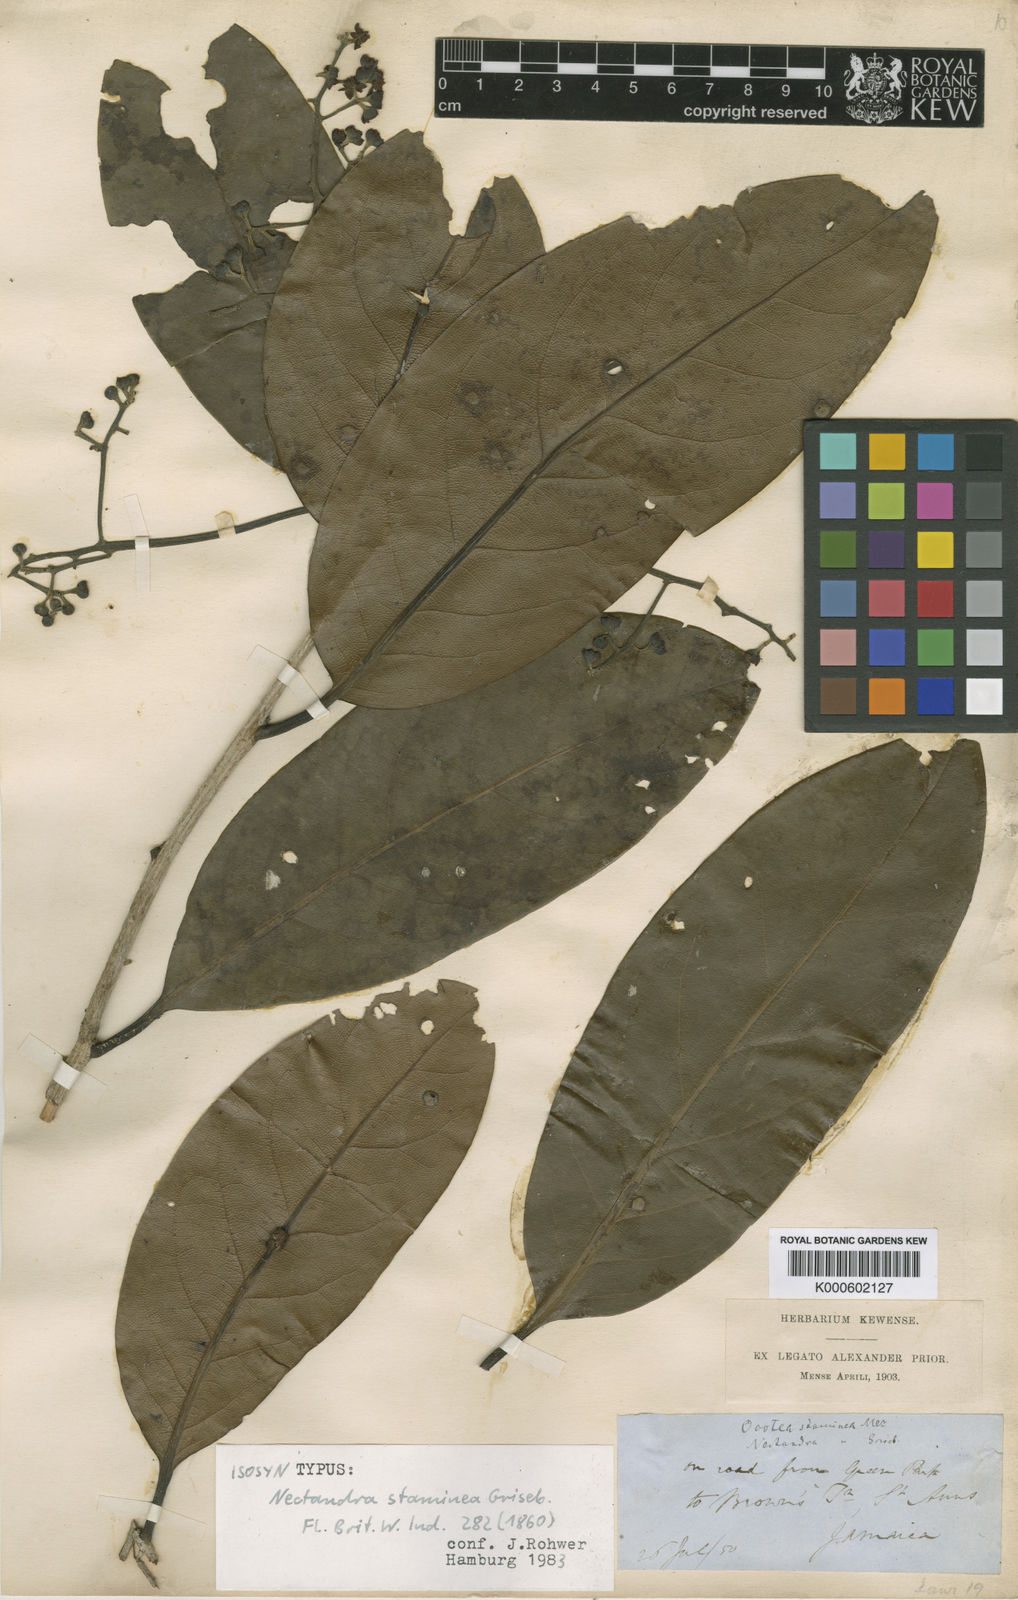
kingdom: Plantae
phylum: Tracheophyta
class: Magnoliopsida
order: Laurales
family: Lauraceae
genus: Mespilodaphne
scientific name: Mespilodaphne staminea
